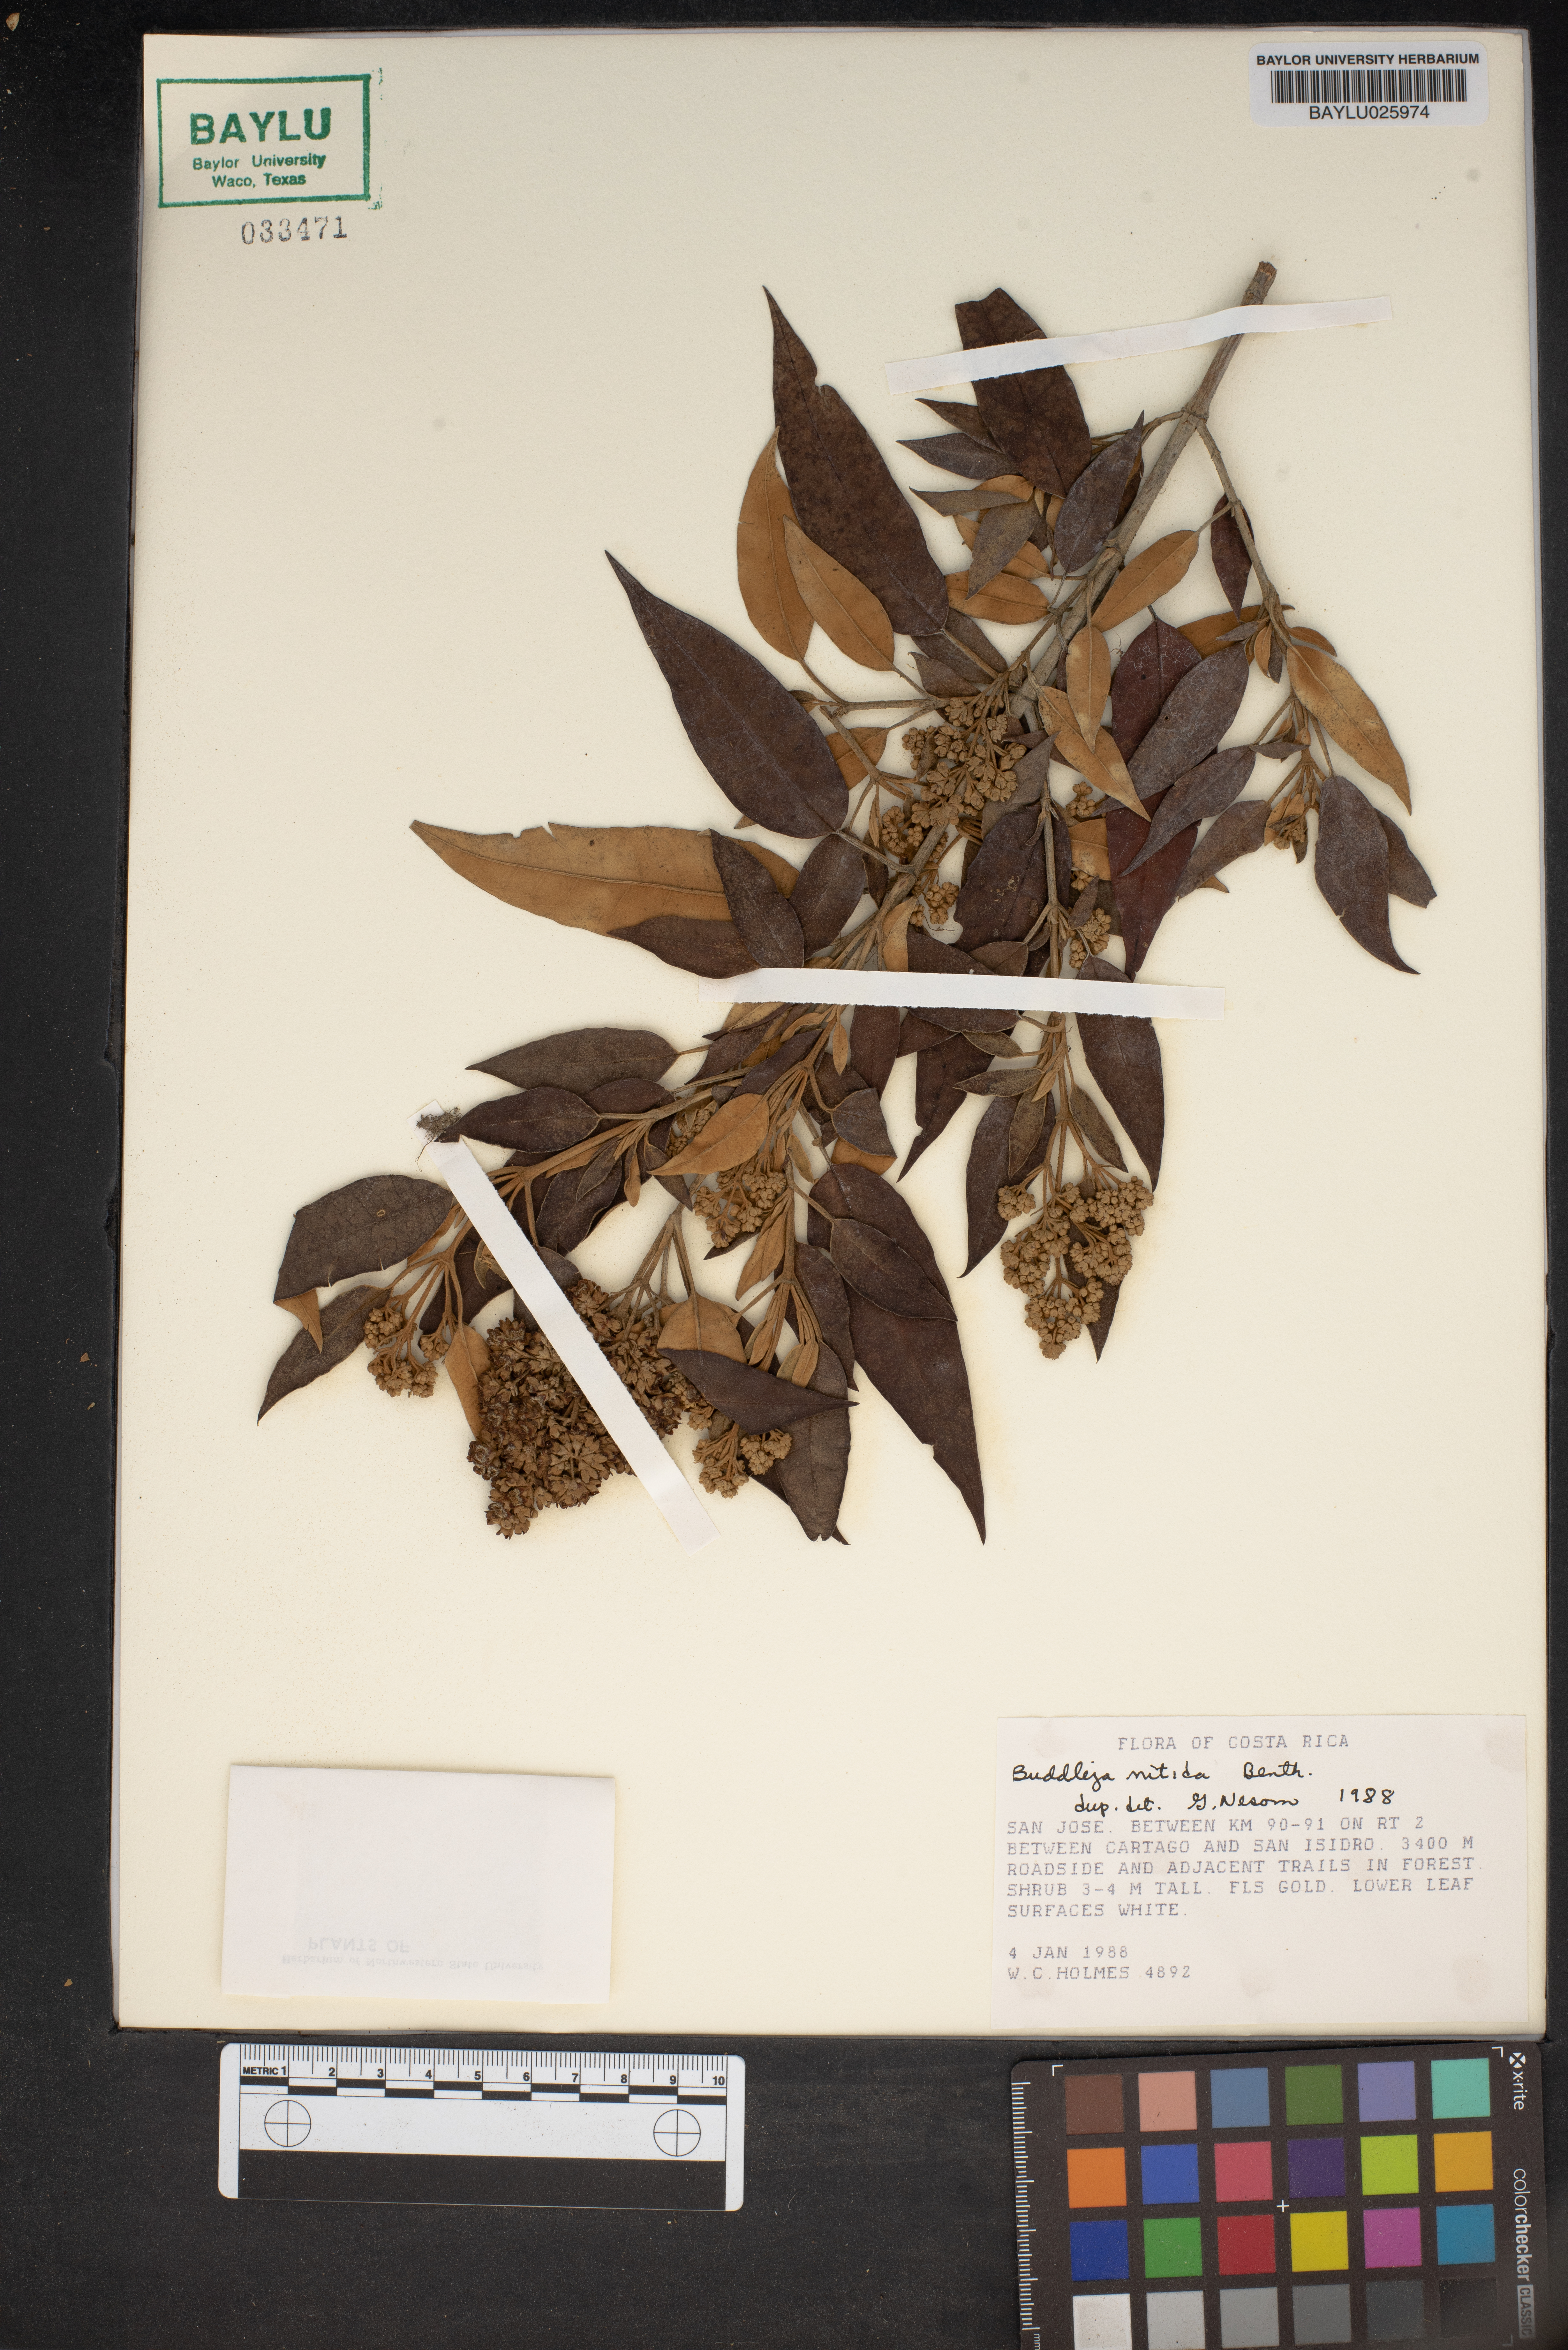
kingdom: Plantae
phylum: Tracheophyta
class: Magnoliopsida
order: Lamiales
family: Scrophulariaceae
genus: Buddleja
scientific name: Buddleja nitida
